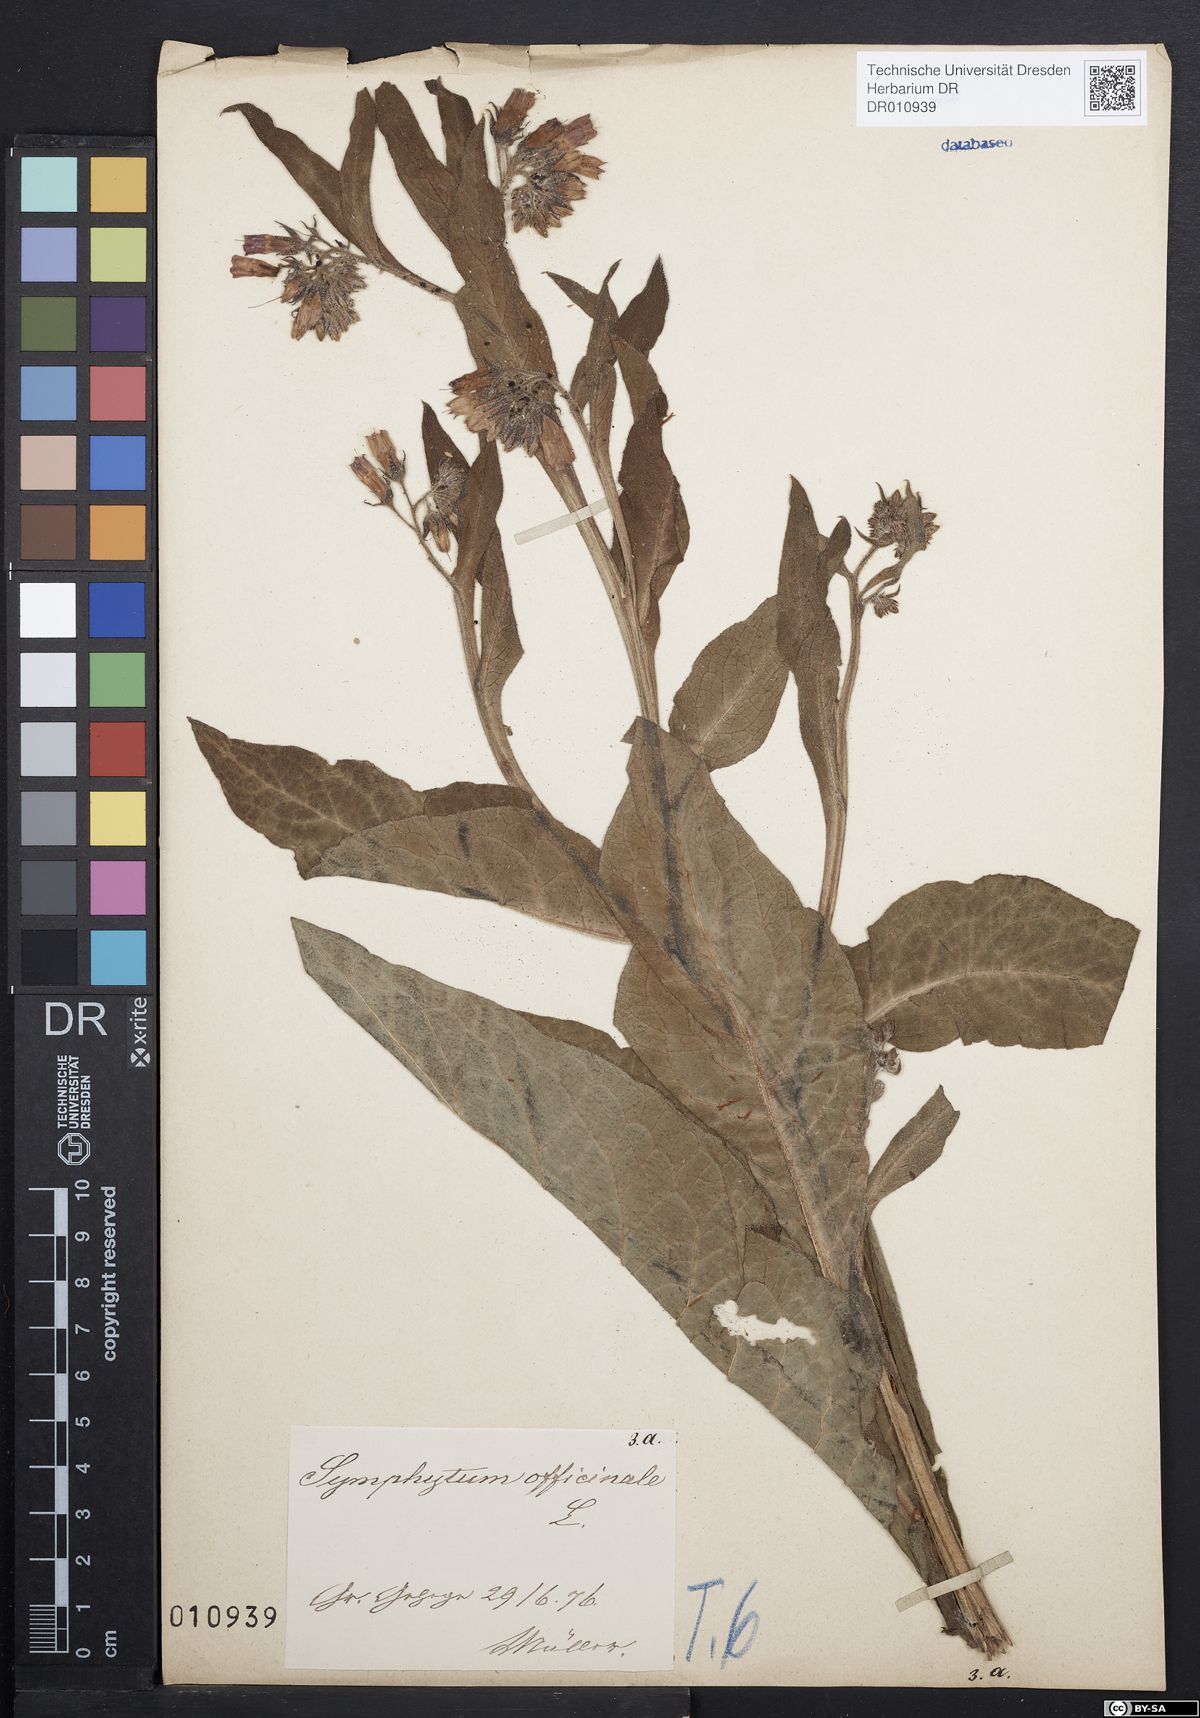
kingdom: Plantae
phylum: Tracheophyta
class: Magnoliopsida
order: Boraginales
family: Boraginaceae
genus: Symphytum
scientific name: Symphytum officinale
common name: Common comfrey
